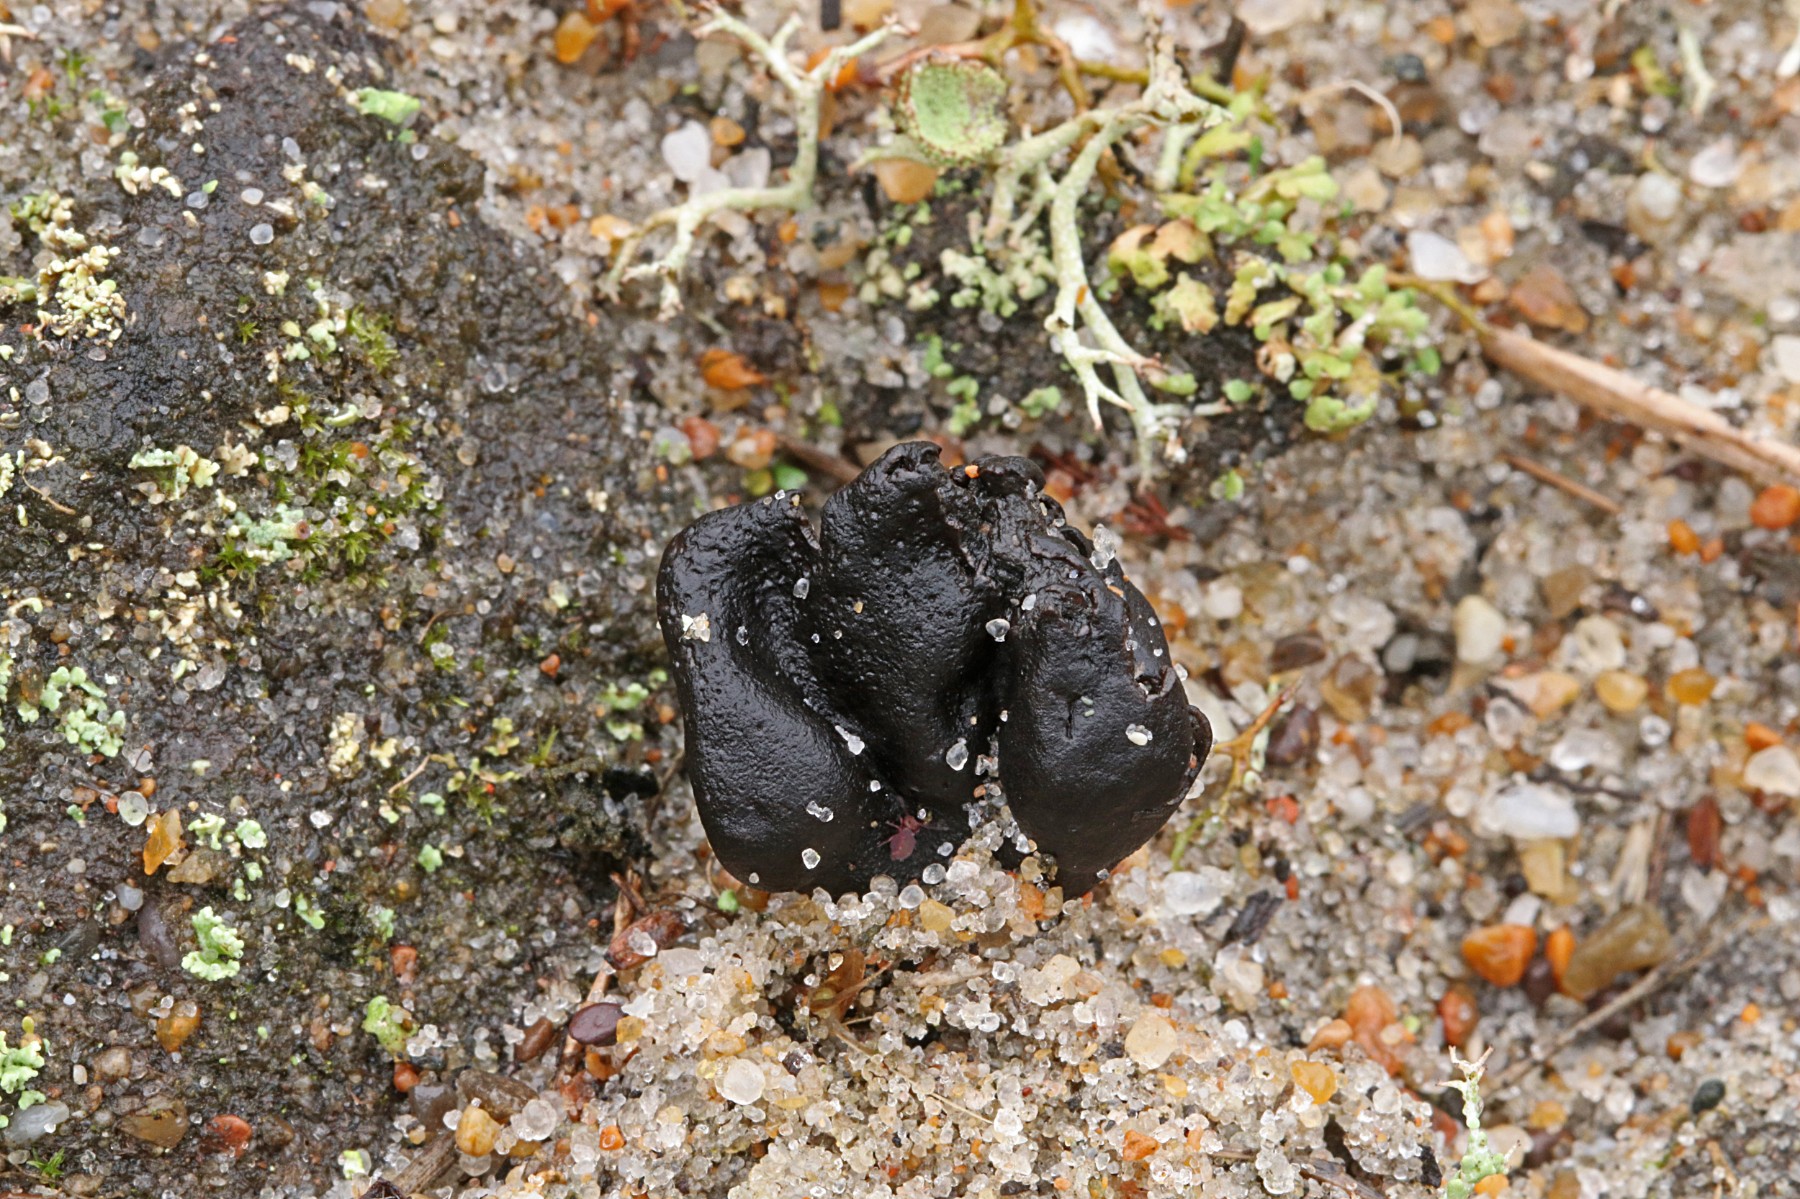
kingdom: Fungi
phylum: Ascomycota
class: Geoglossomycetes
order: Geoglossales
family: Geoglossaceae
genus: Sabuloglossum
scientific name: Sabuloglossum arenarium
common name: klit-jordtunge
